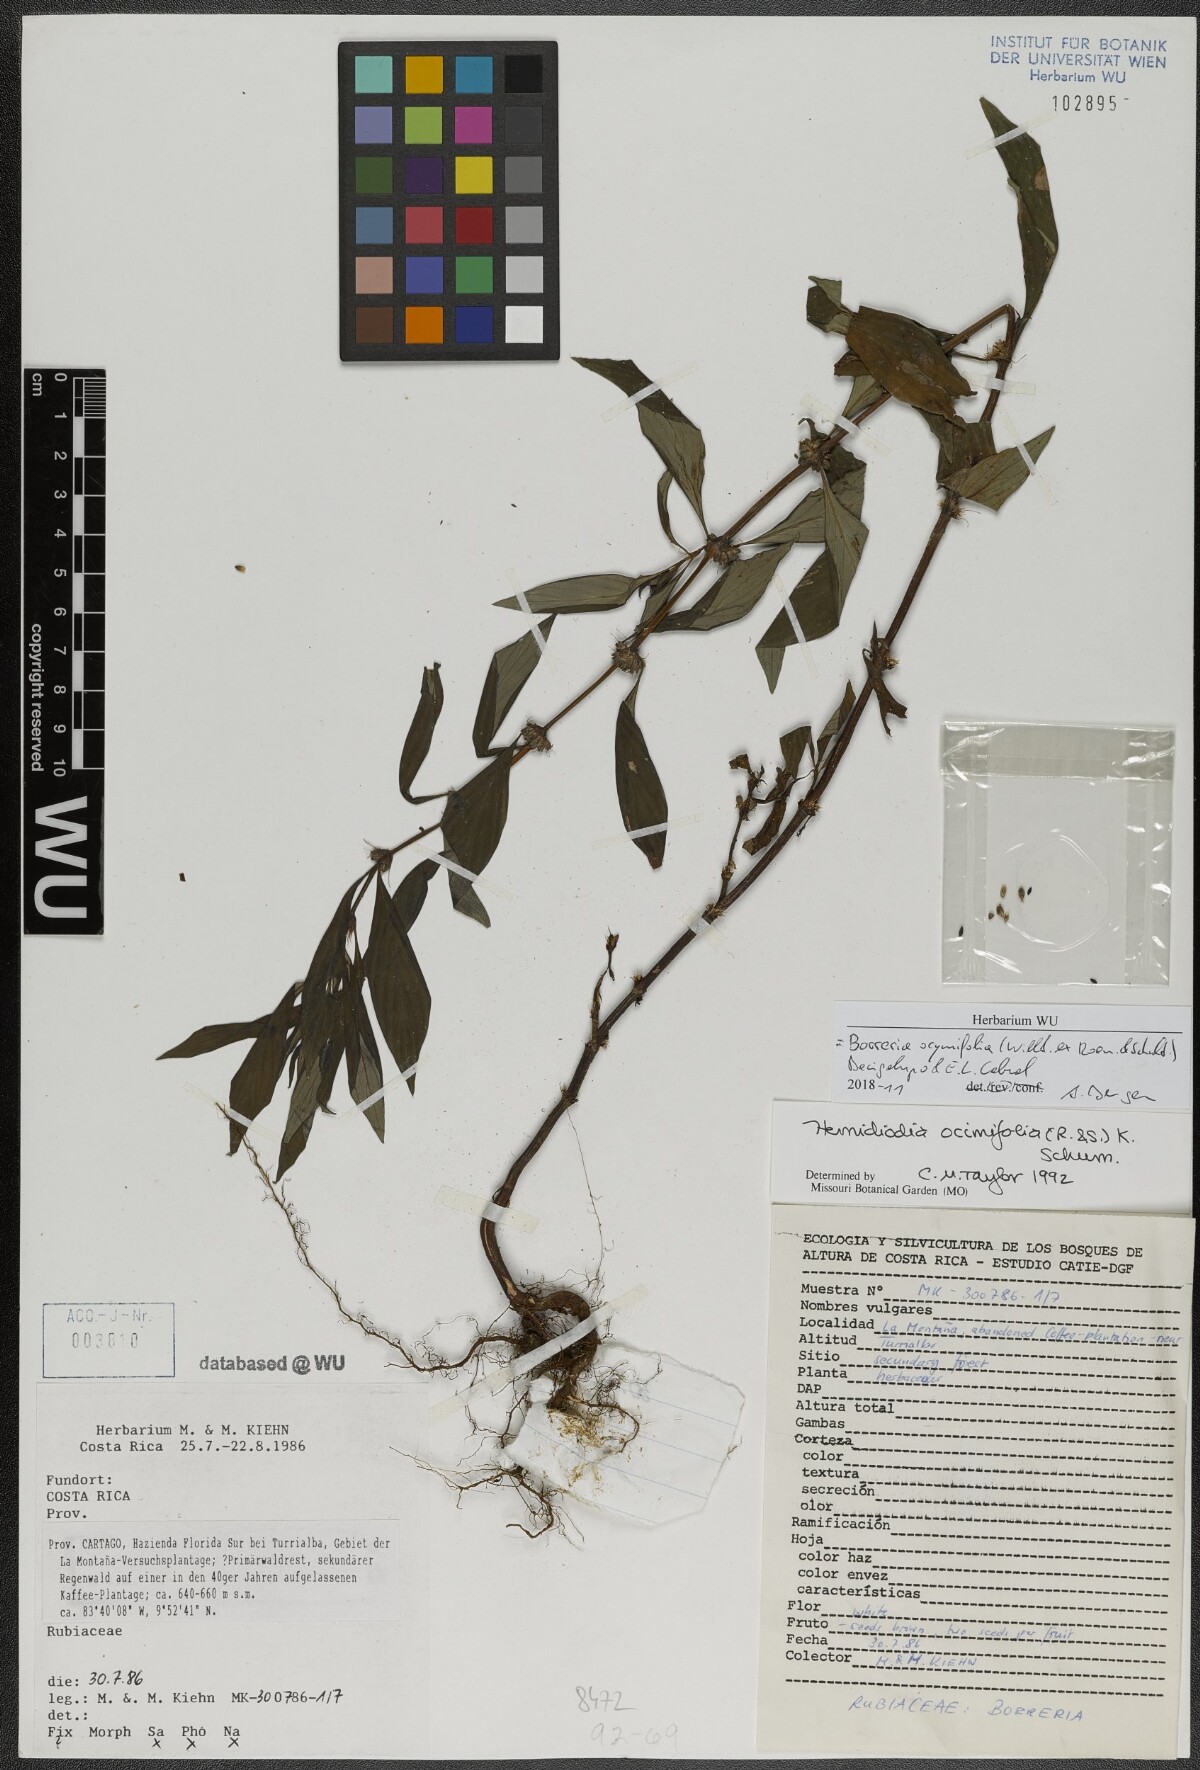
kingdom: Plantae
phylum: Tracheophyta
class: Magnoliopsida
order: Gentianales
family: Rubiaceae
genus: Spermacoce
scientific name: Spermacoce ocymifolia
